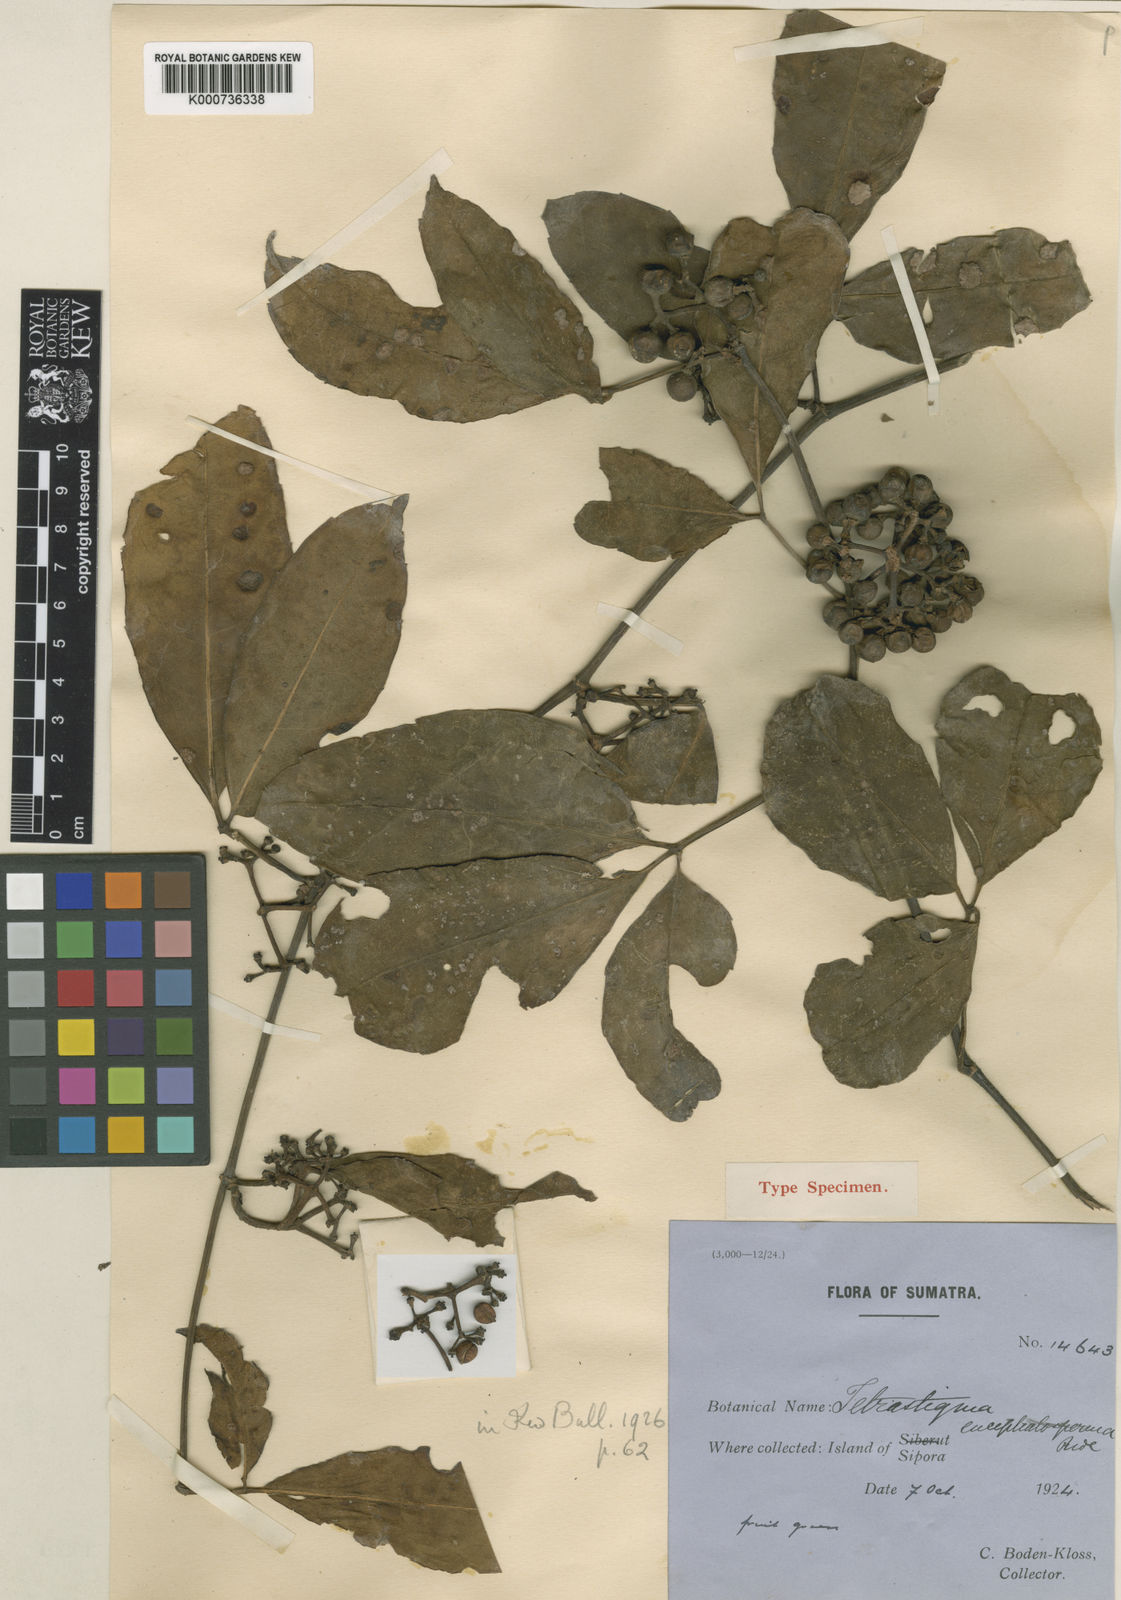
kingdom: Plantae
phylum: Tracheophyta
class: Magnoliopsida
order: Vitales
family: Vitaceae
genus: Tetrastigma
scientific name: Tetrastigma mutabile
